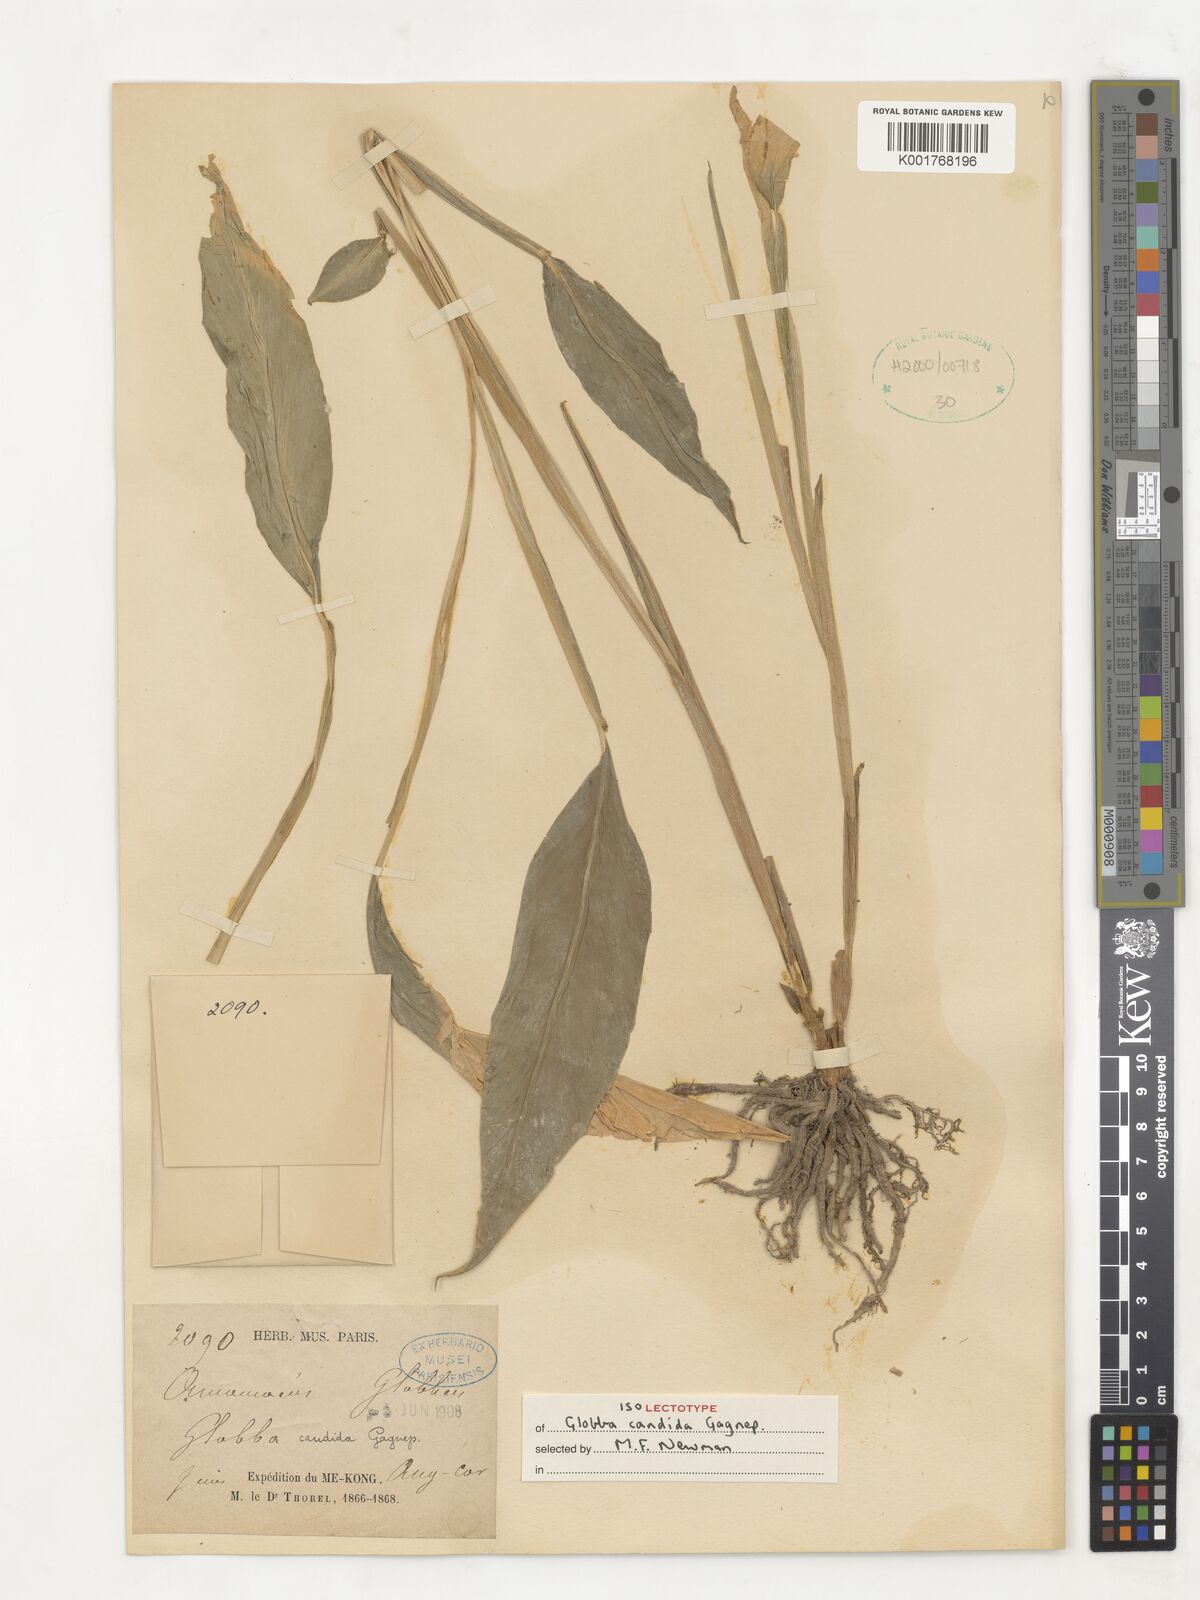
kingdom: Plantae
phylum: Tracheophyta
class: Liliopsida
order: Zingiberales
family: Zingiberaceae
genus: Globba
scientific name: Globba candida
